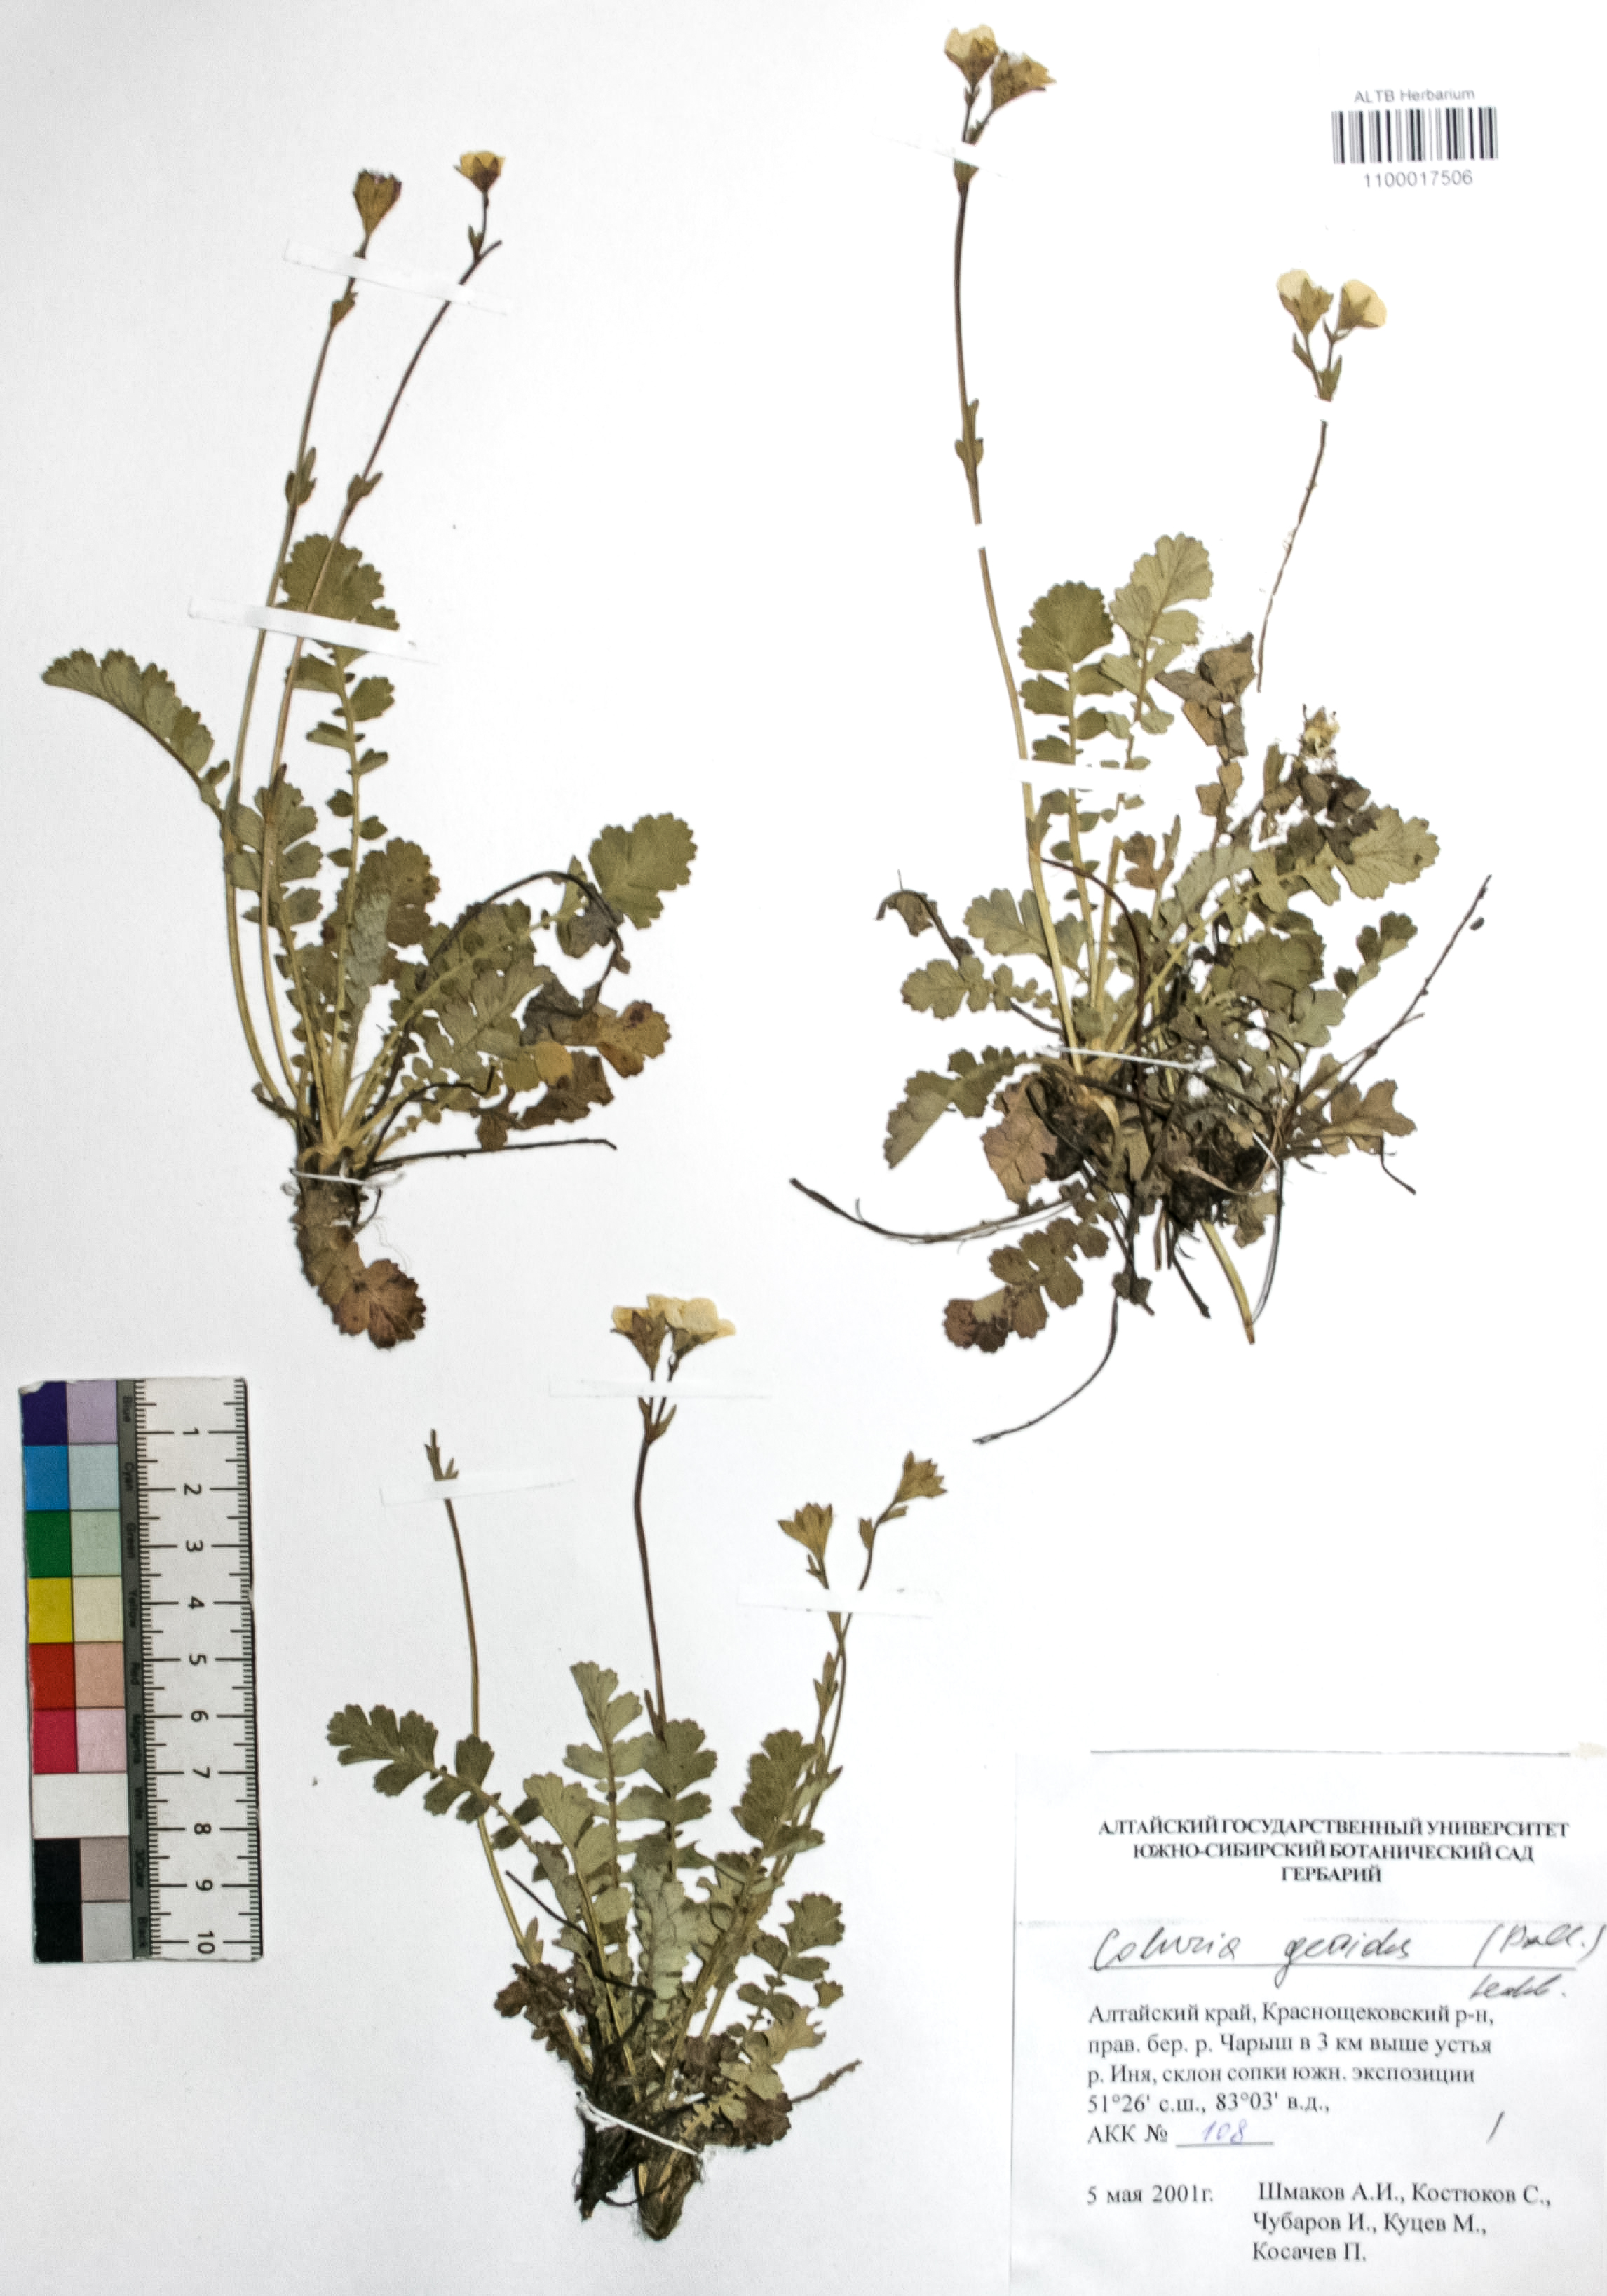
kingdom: Plantae
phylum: Tracheophyta
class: Magnoliopsida
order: Rosales
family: Rosaceae
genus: Geum
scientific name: Geum geoides
